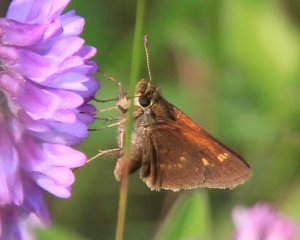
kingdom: Animalia
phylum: Arthropoda
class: Insecta
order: Lepidoptera
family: Hesperiidae
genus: Polites
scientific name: Polites coras
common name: Peck's Skipper
